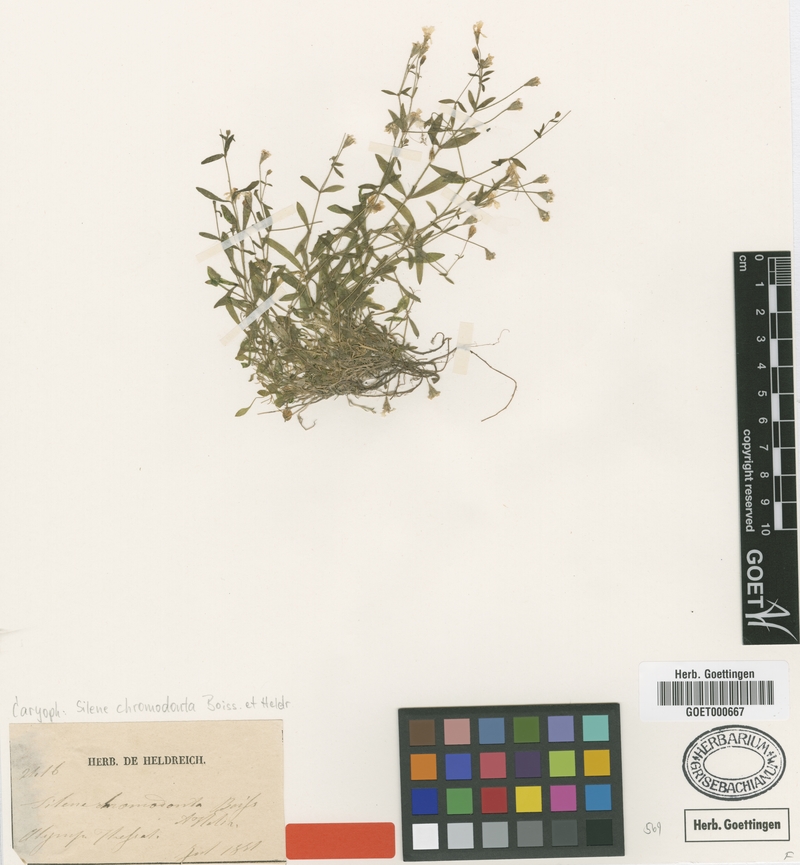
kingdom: Plantae
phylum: Tracheophyta
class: Magnoliopsida
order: Caryophyllales
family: Caryophyllaceae
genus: Heliosperma
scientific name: Heliosperma pusillum
